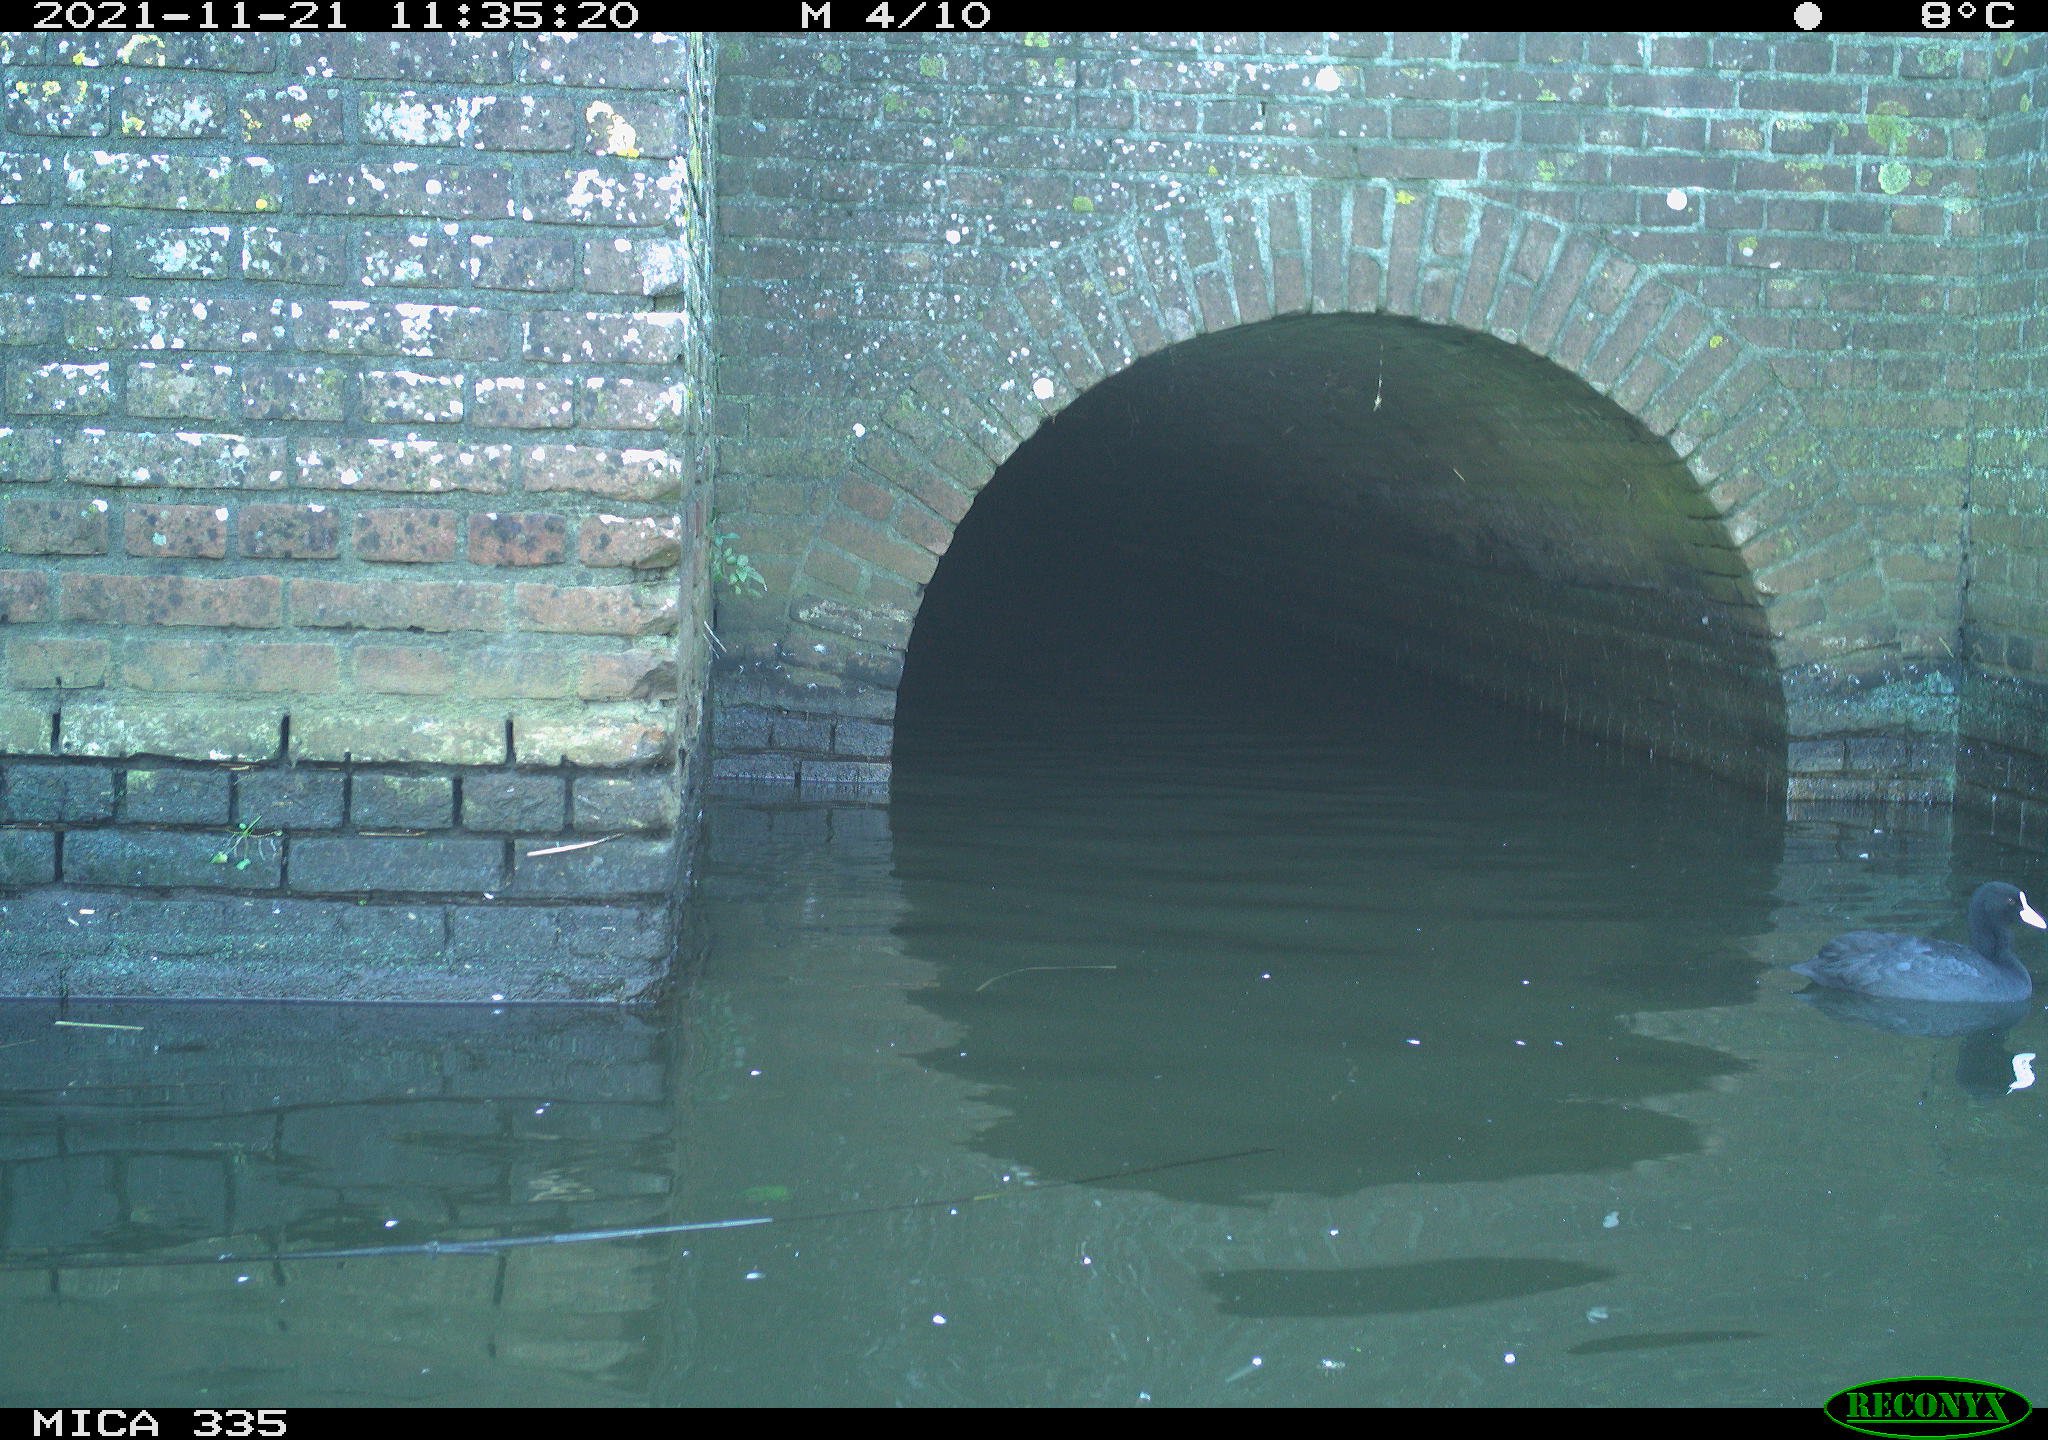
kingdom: Animalia
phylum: Chordata
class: Aves
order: Gruiformes
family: Rallidae
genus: Fulica
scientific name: Fulica atra
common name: Eurasian coot
